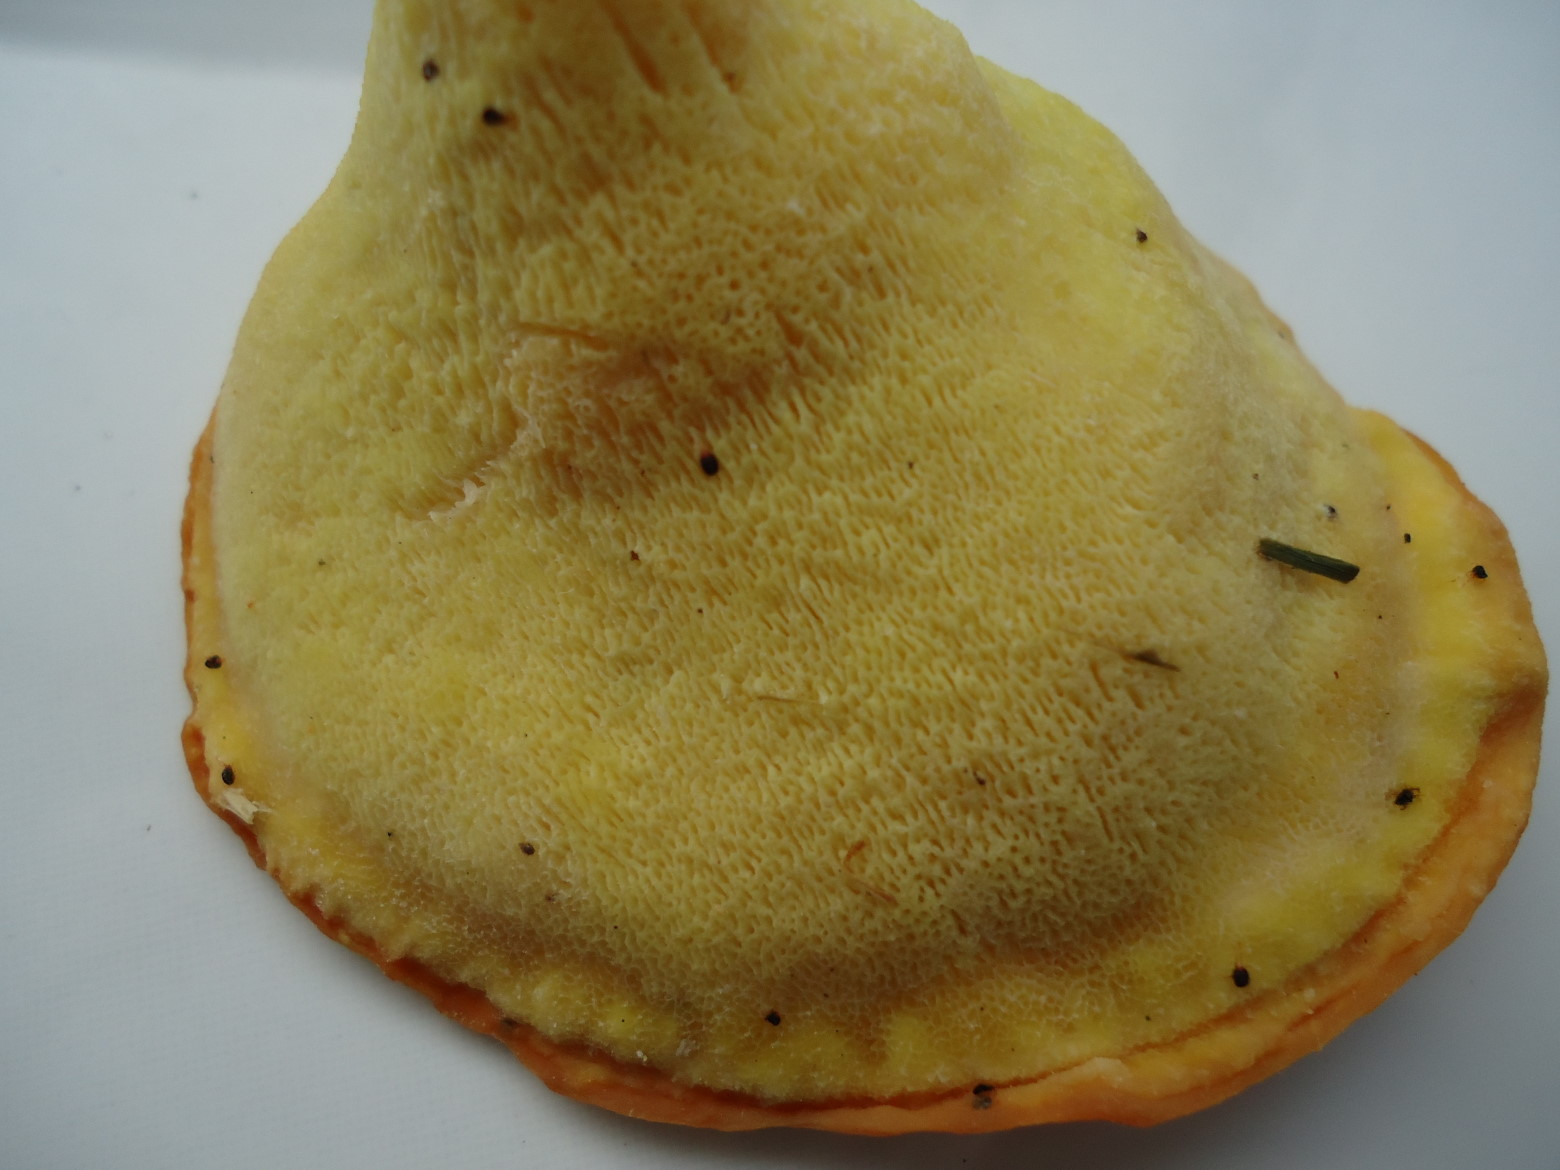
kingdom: Fungi
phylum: Basidiomycota
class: Agaricomycetes
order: Polyporales
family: Laetiporaceae
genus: Laetiporus
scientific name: Laetiporus sulphureus
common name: svovlporesvamp
